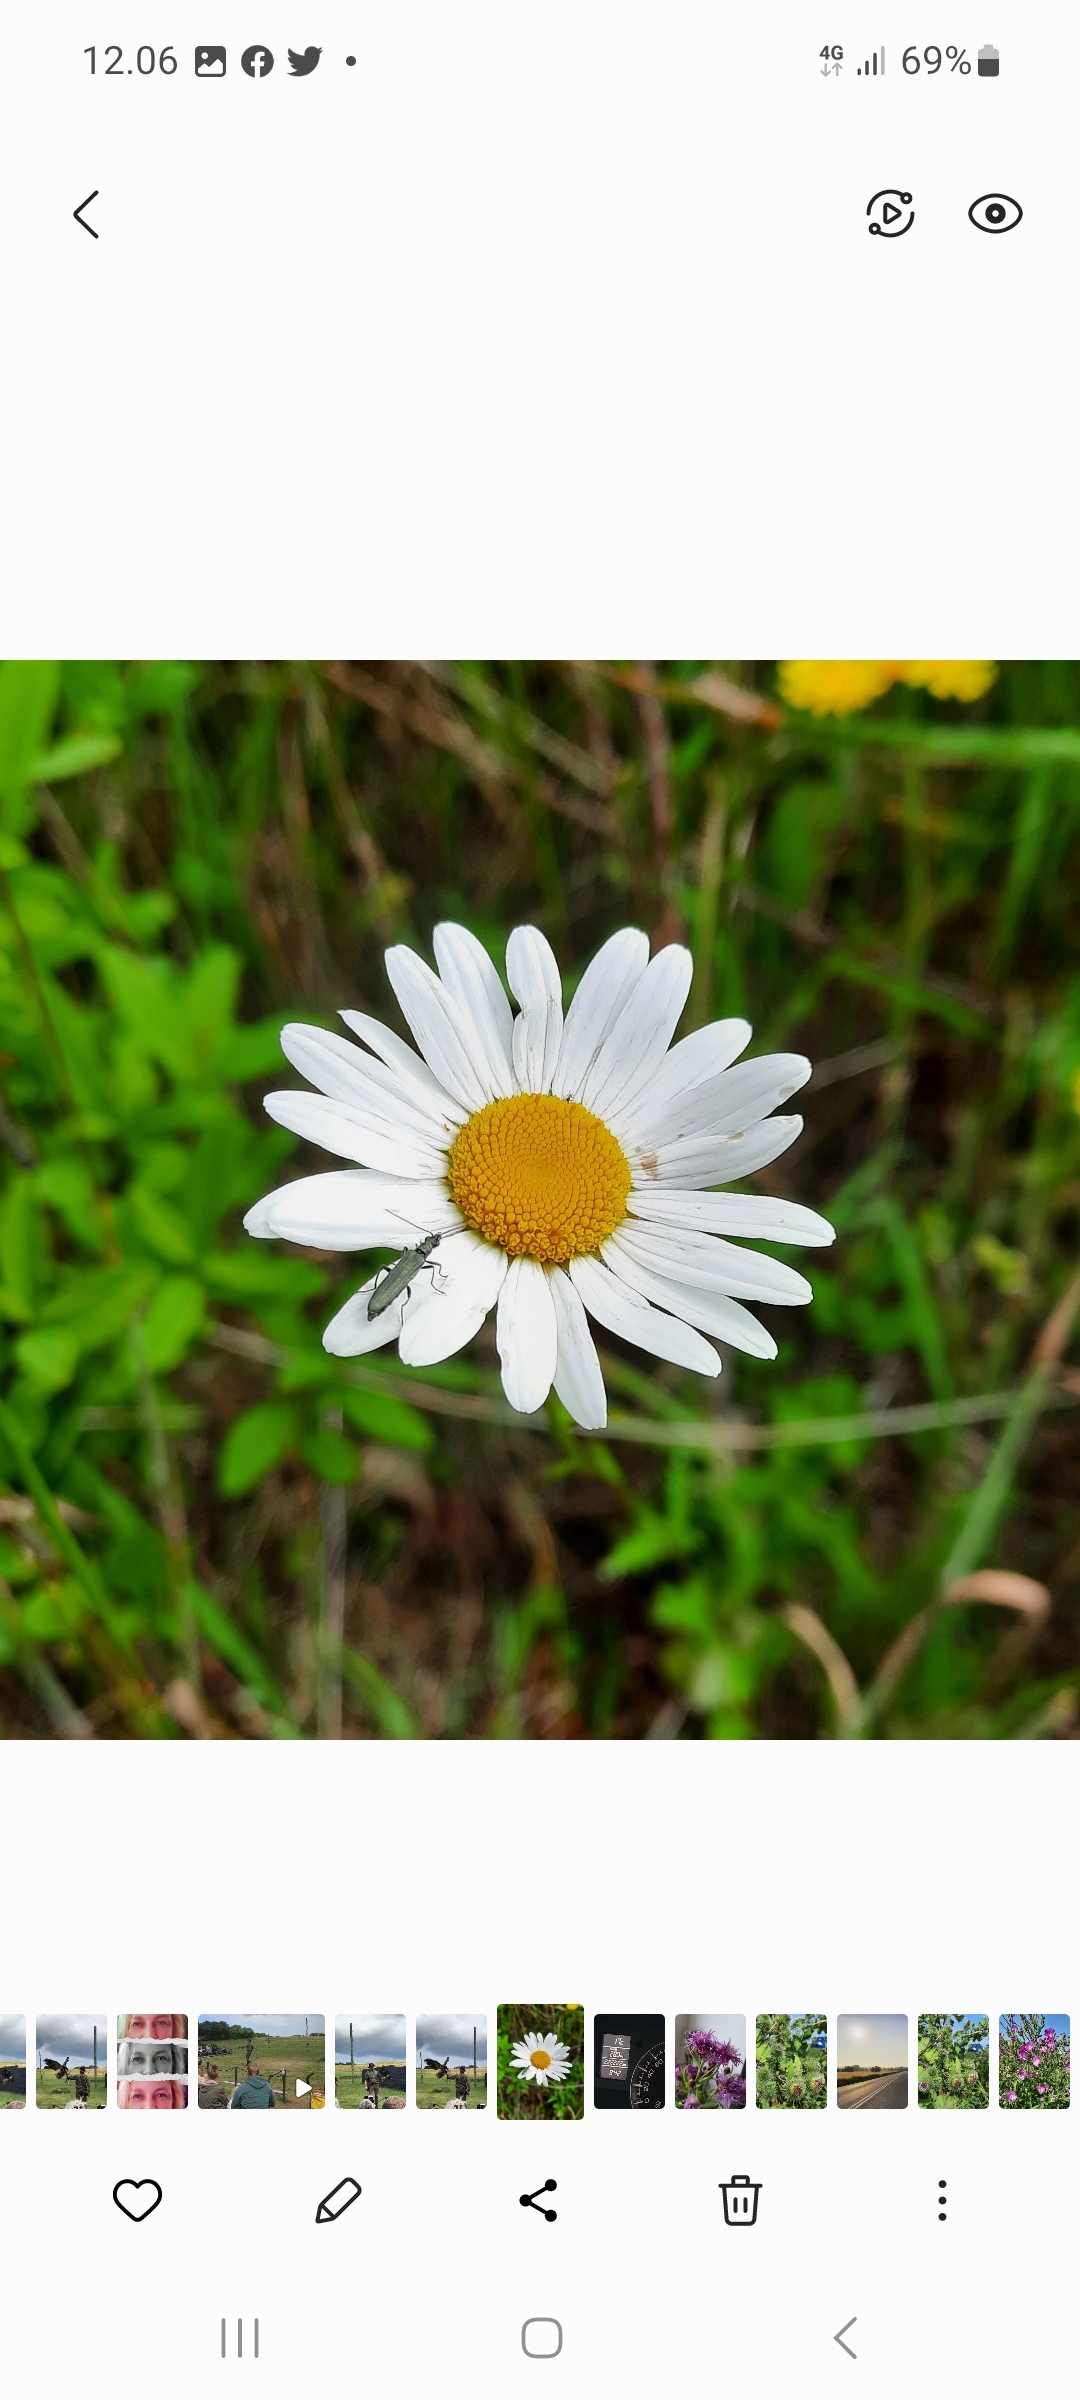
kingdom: Plantae
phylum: Tracheophyta
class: Magnoliopsida
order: Asterales
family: Asteraceae
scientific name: Asteraceae
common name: Kurvblomstfamilien
